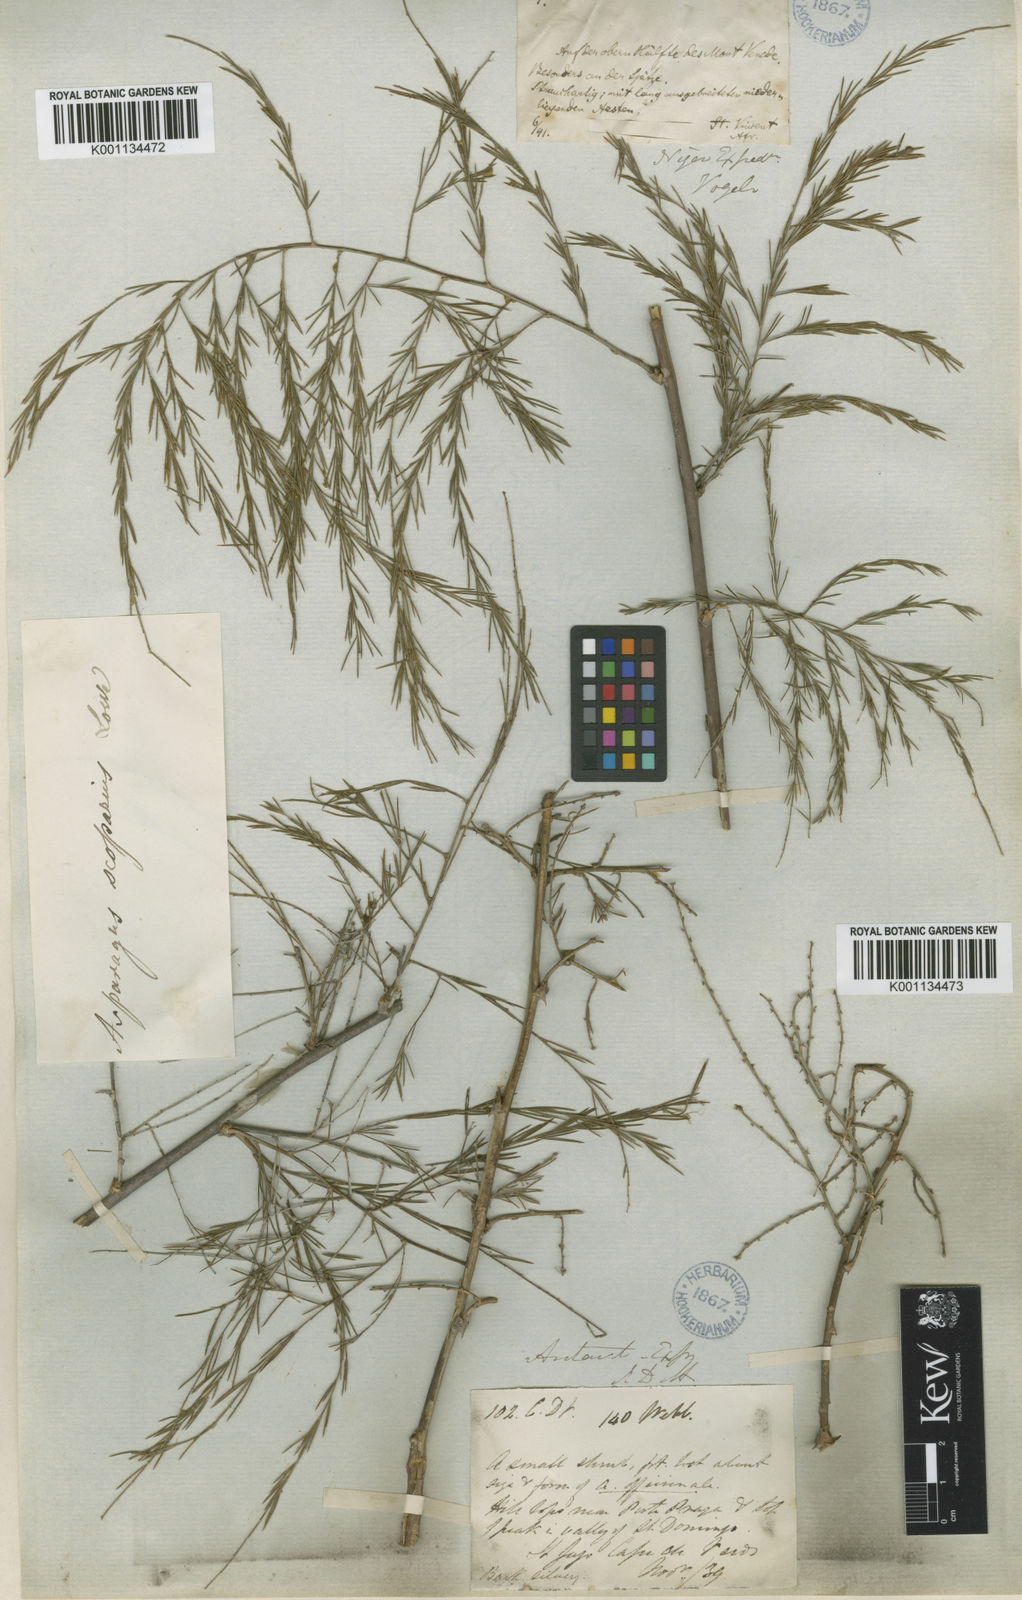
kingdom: Plantae
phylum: Tracheophyta
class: Liliopsida
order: Asparagales
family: Asparagaceae
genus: Asparagus
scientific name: Asparagus squarrosus
